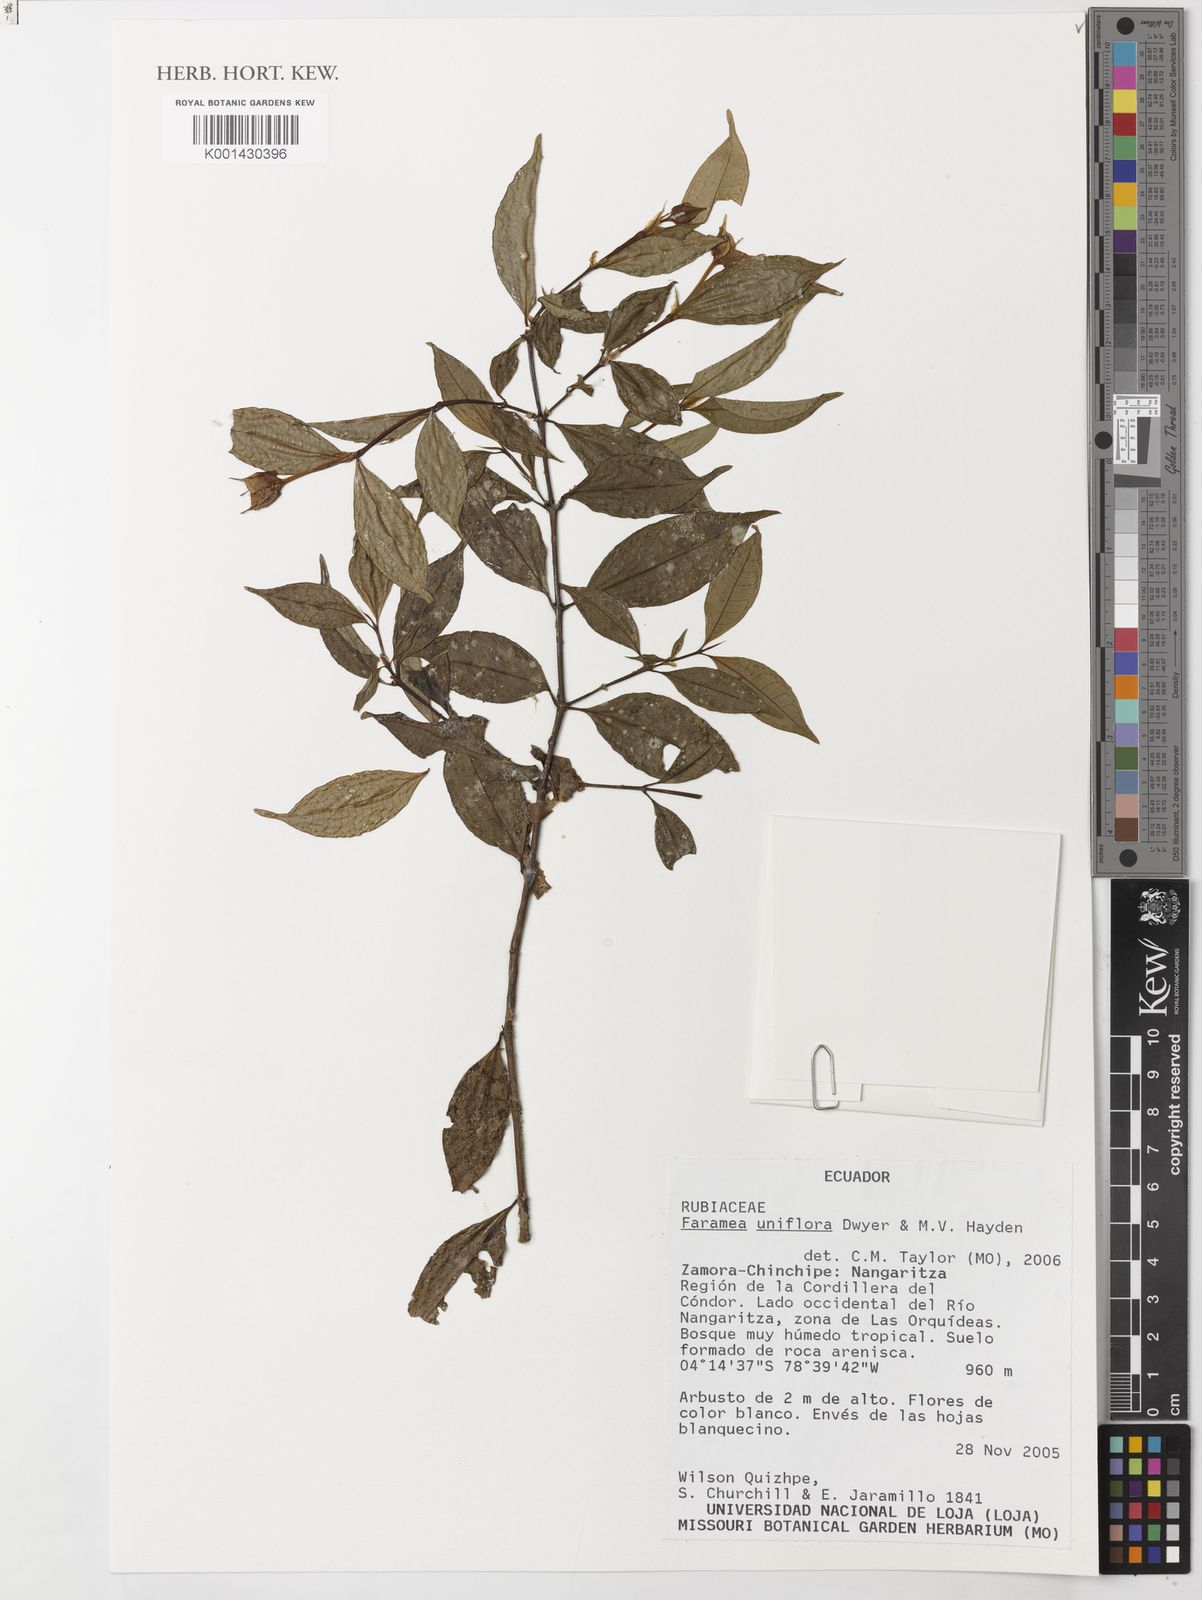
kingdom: Plantae
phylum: Tracheophyta
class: Magnoliopsida
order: Gentianales
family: Rubiaceae
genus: Faramea
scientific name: Faramea uniflora
